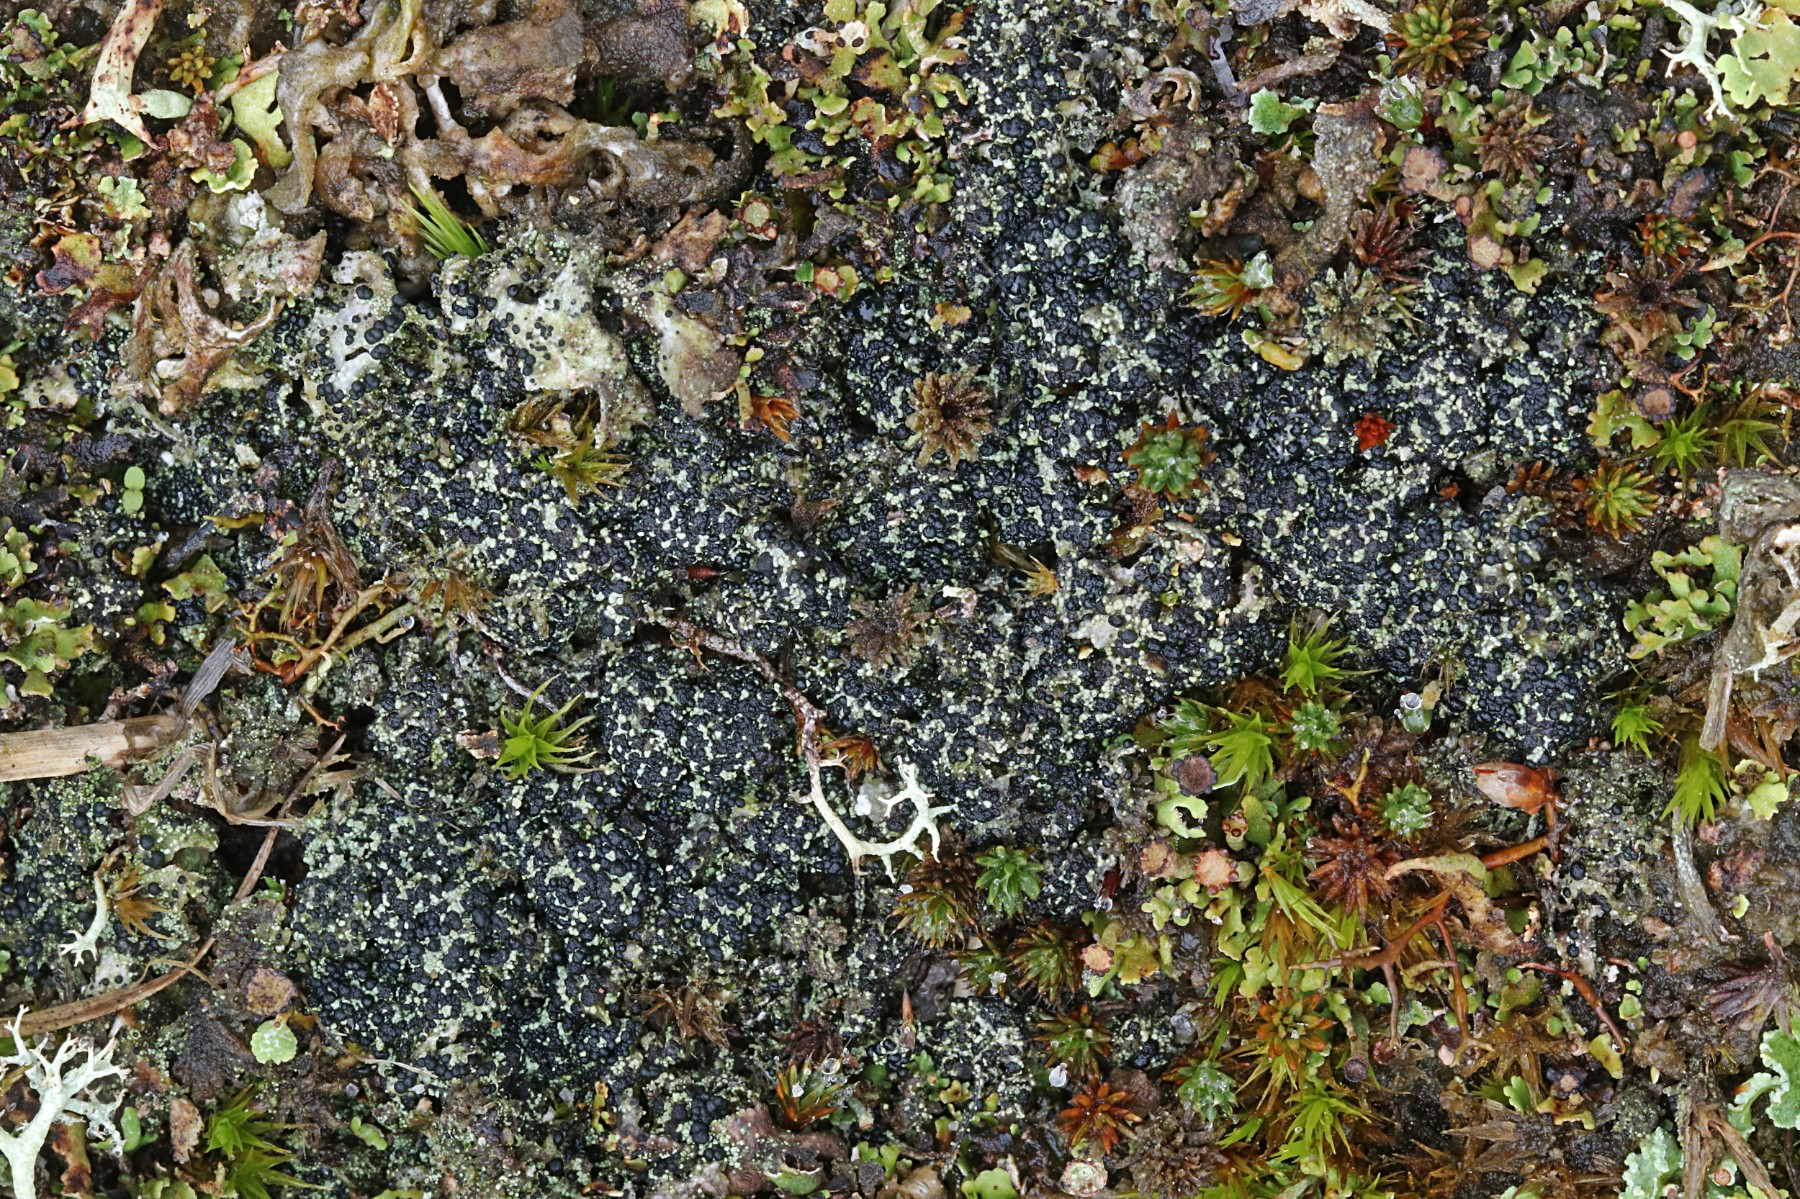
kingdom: Fungi
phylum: Ascomycota
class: Lecanoromycetes
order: Lecanorales
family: Byssolomataceae
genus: Micarea
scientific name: Micarea lignaria
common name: tørve-knaplav
